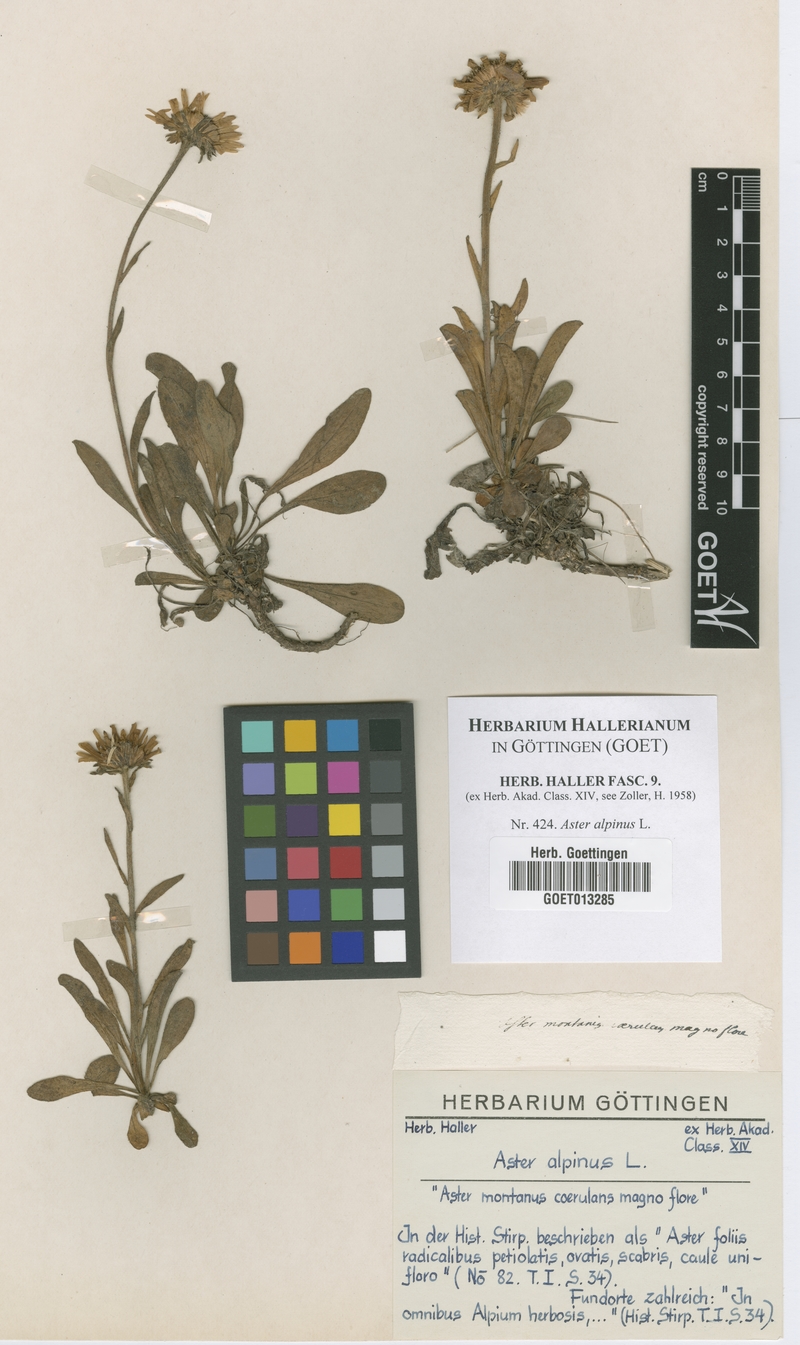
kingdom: Plantae
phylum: Tracheophyta
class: Magnoliopsida
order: Asterales
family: Asteraceae
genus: Aster
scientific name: Aster alpinus
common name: Alpine aster
